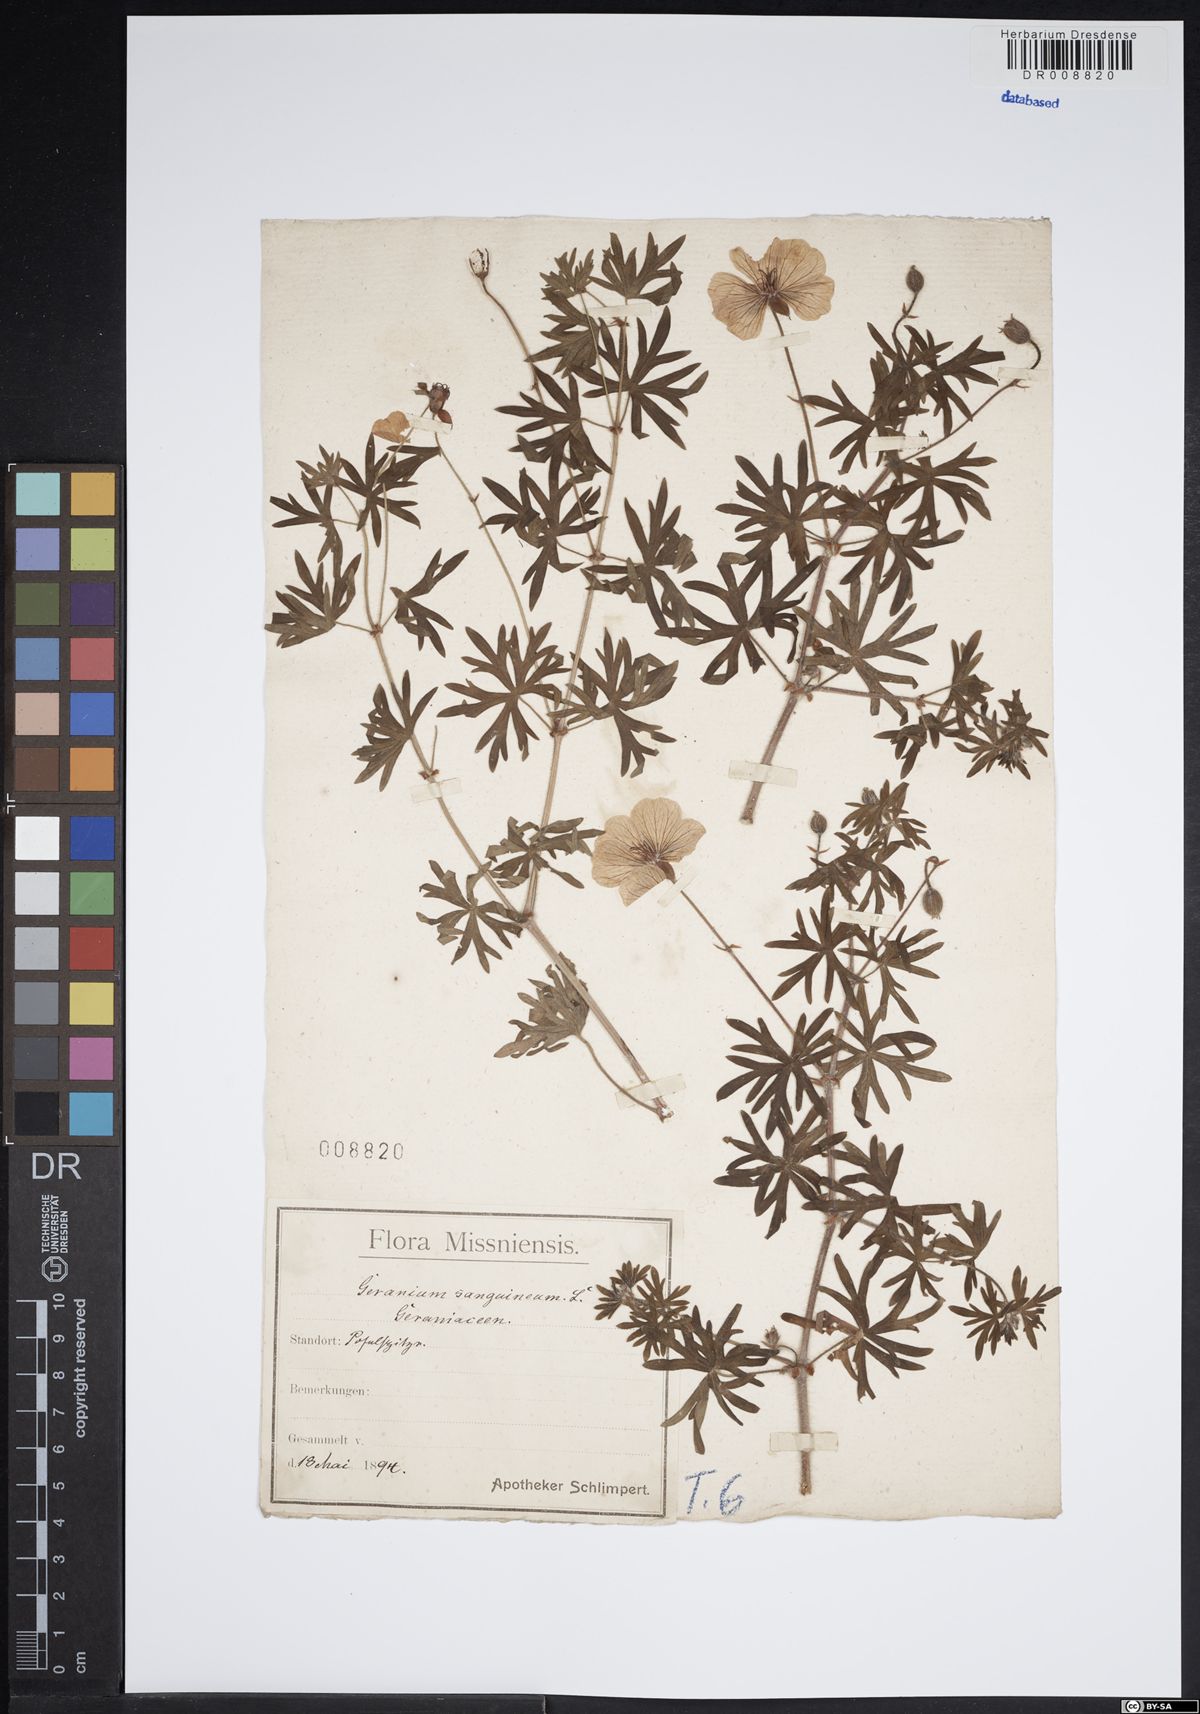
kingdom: Plantae
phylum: Tracheophyta
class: Magnoliopsida
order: Geraniales
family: Geraniaceae
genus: Geranium
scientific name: Geranium sanguineum
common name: Bloody crane's-bill
